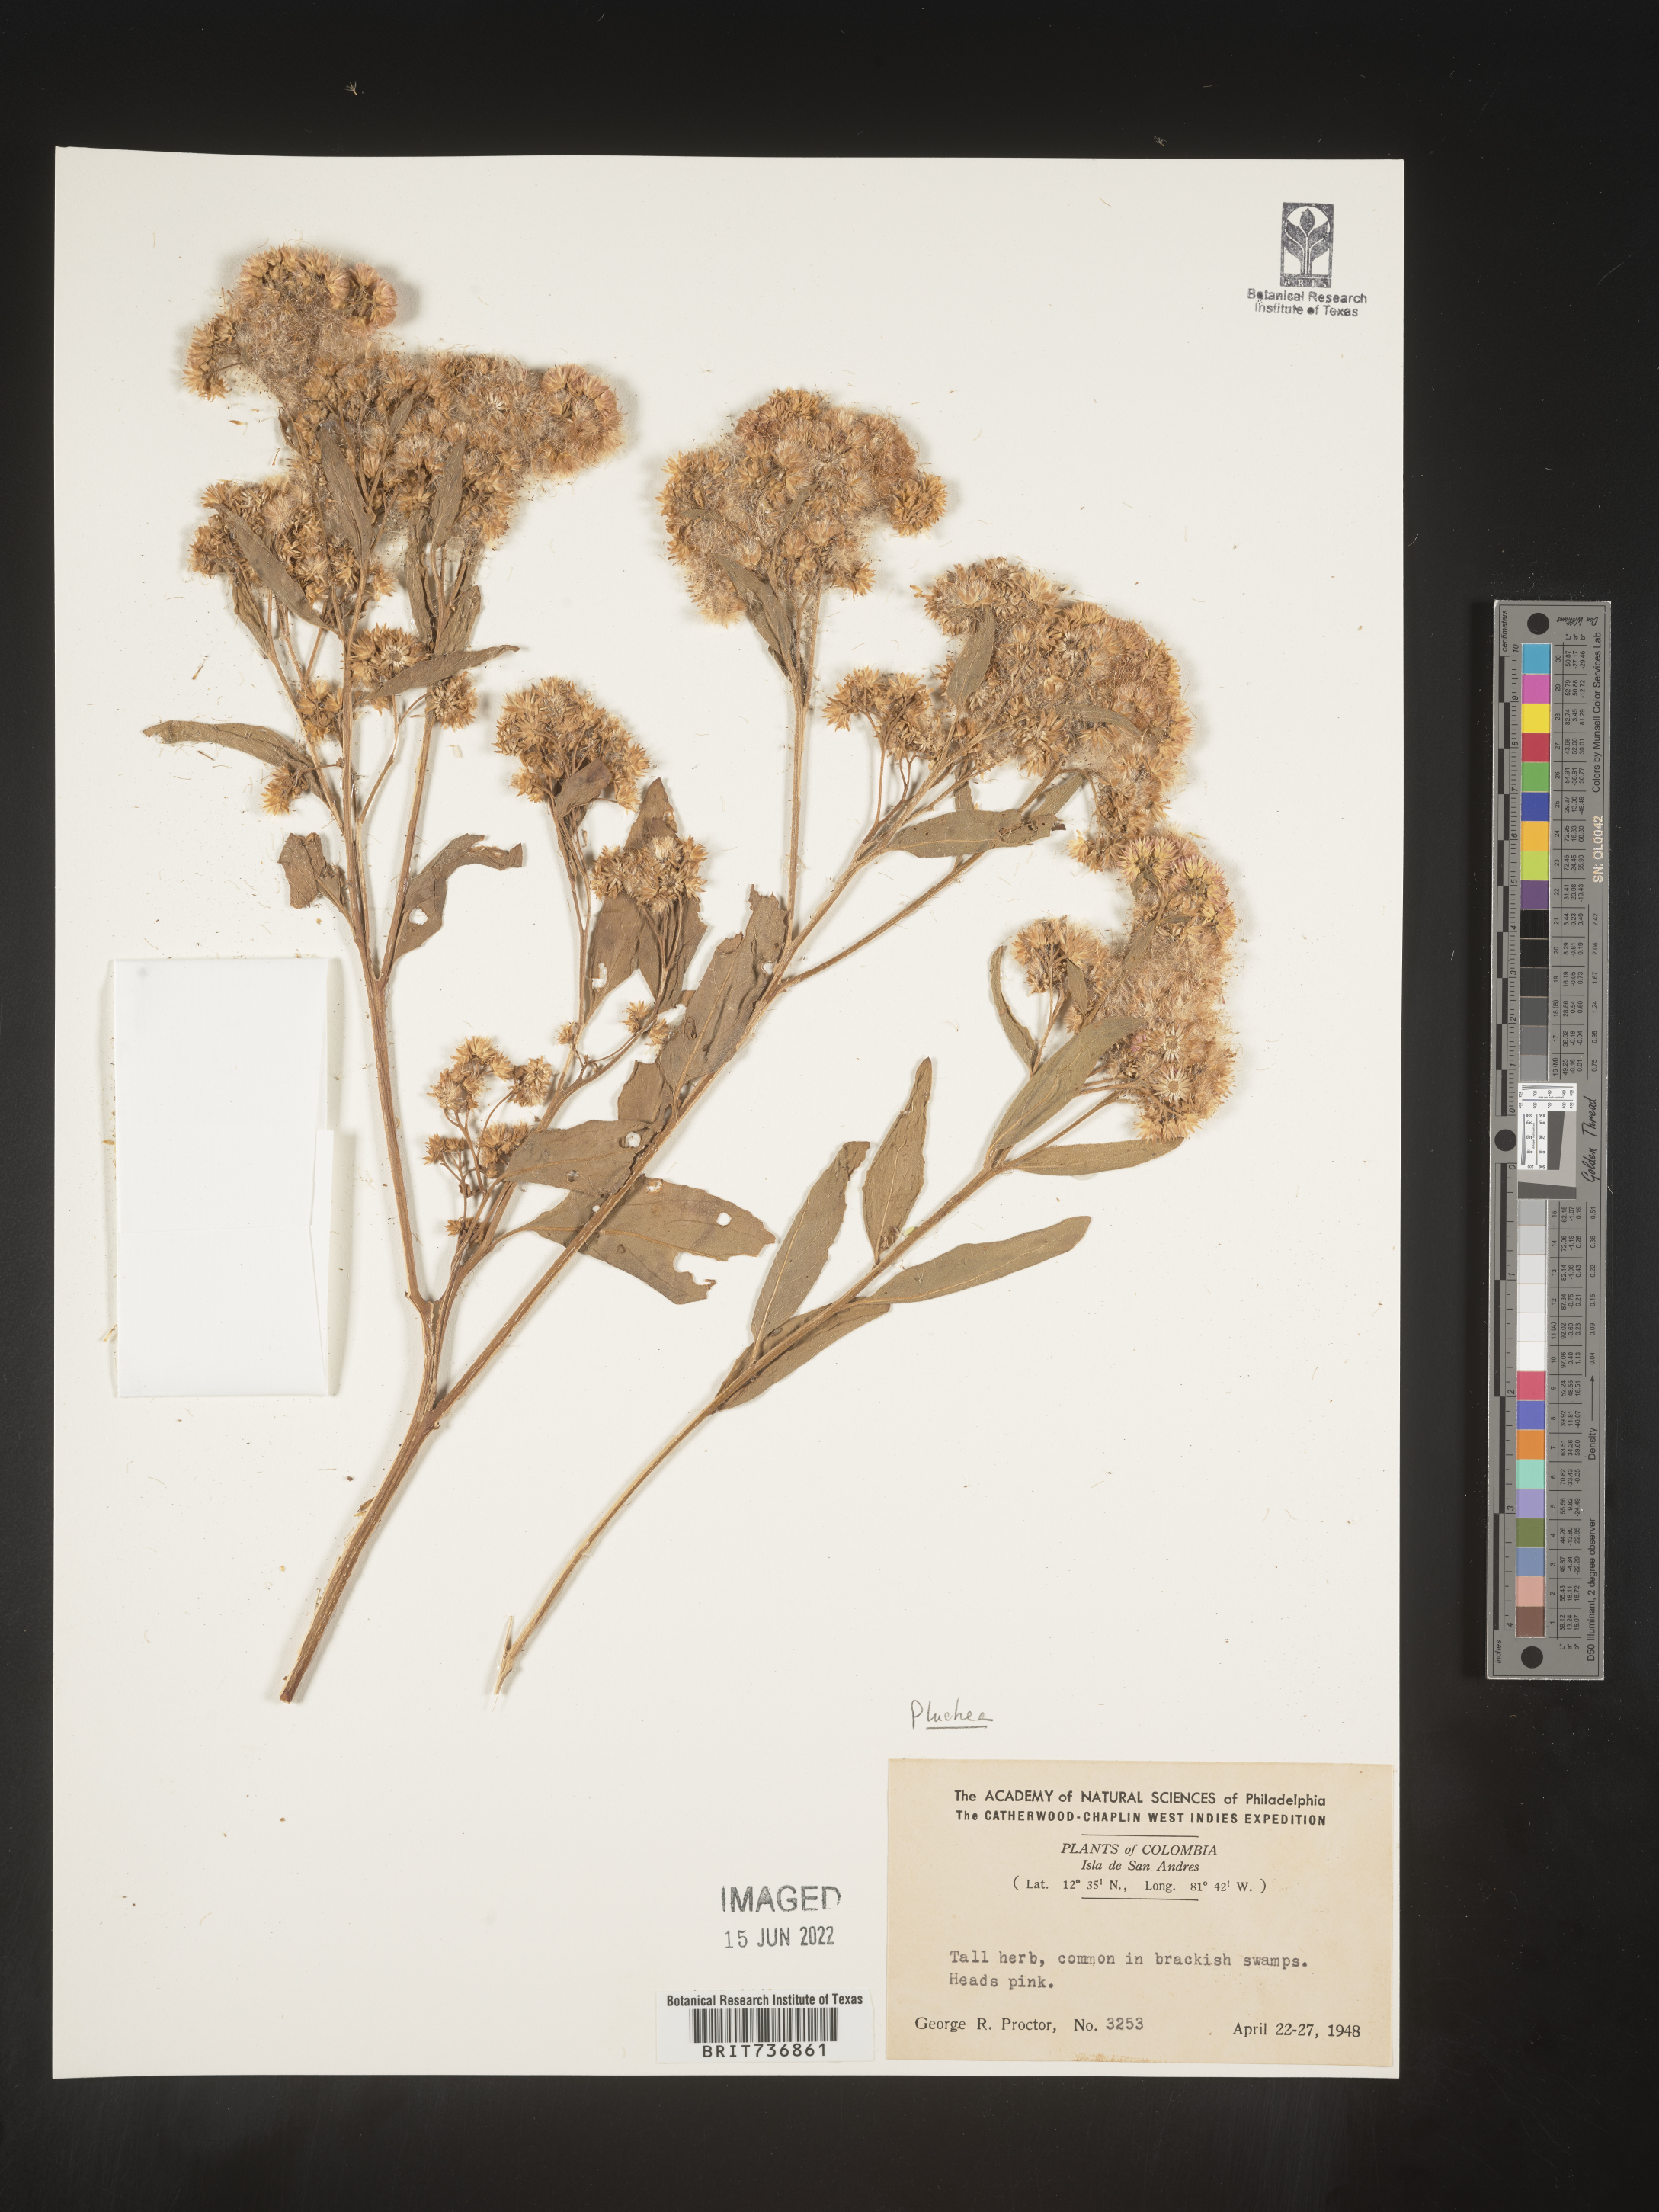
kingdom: Plantae
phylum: Tracheophyta
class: Magnoliopsida
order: Asterales
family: Asteraceae
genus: Pluchea
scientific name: Pluchea
